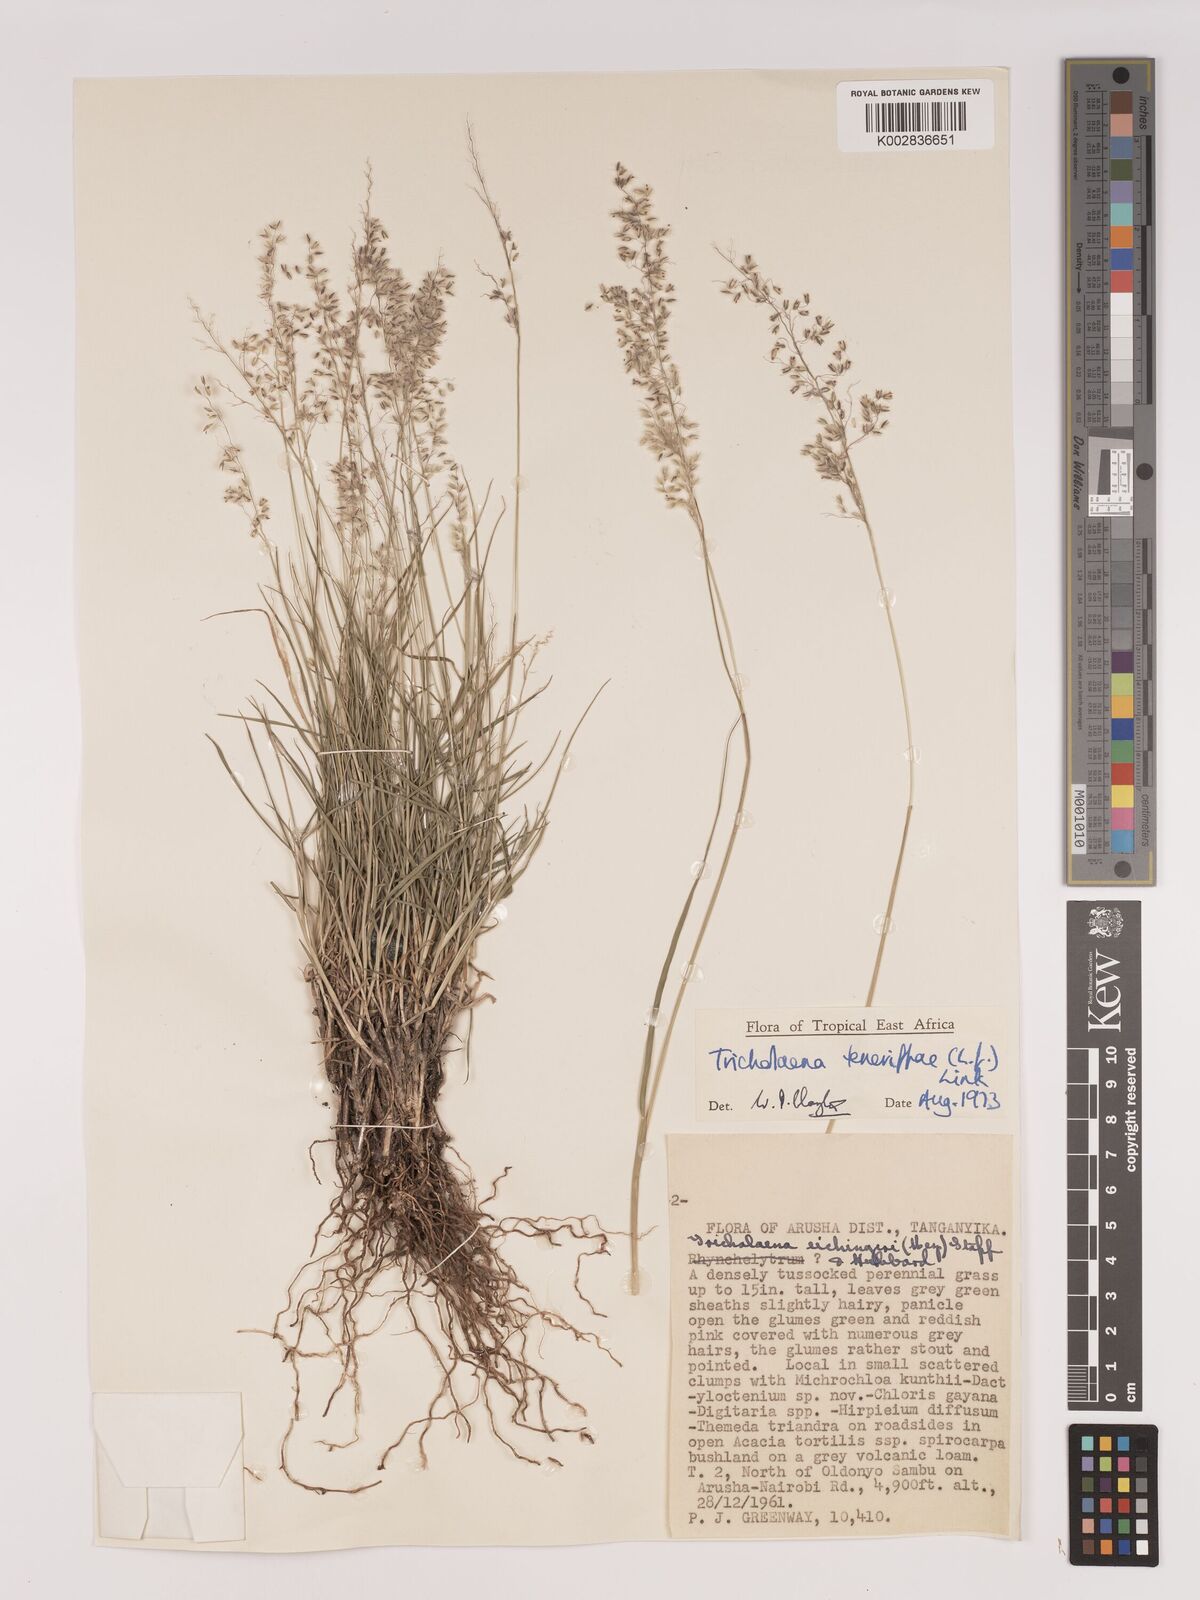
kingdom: Plantae
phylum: Tracheophyta
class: Liliopsida
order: Poales
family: Poaceae
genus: Tricholaena
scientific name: Tricholaena teneriffae
